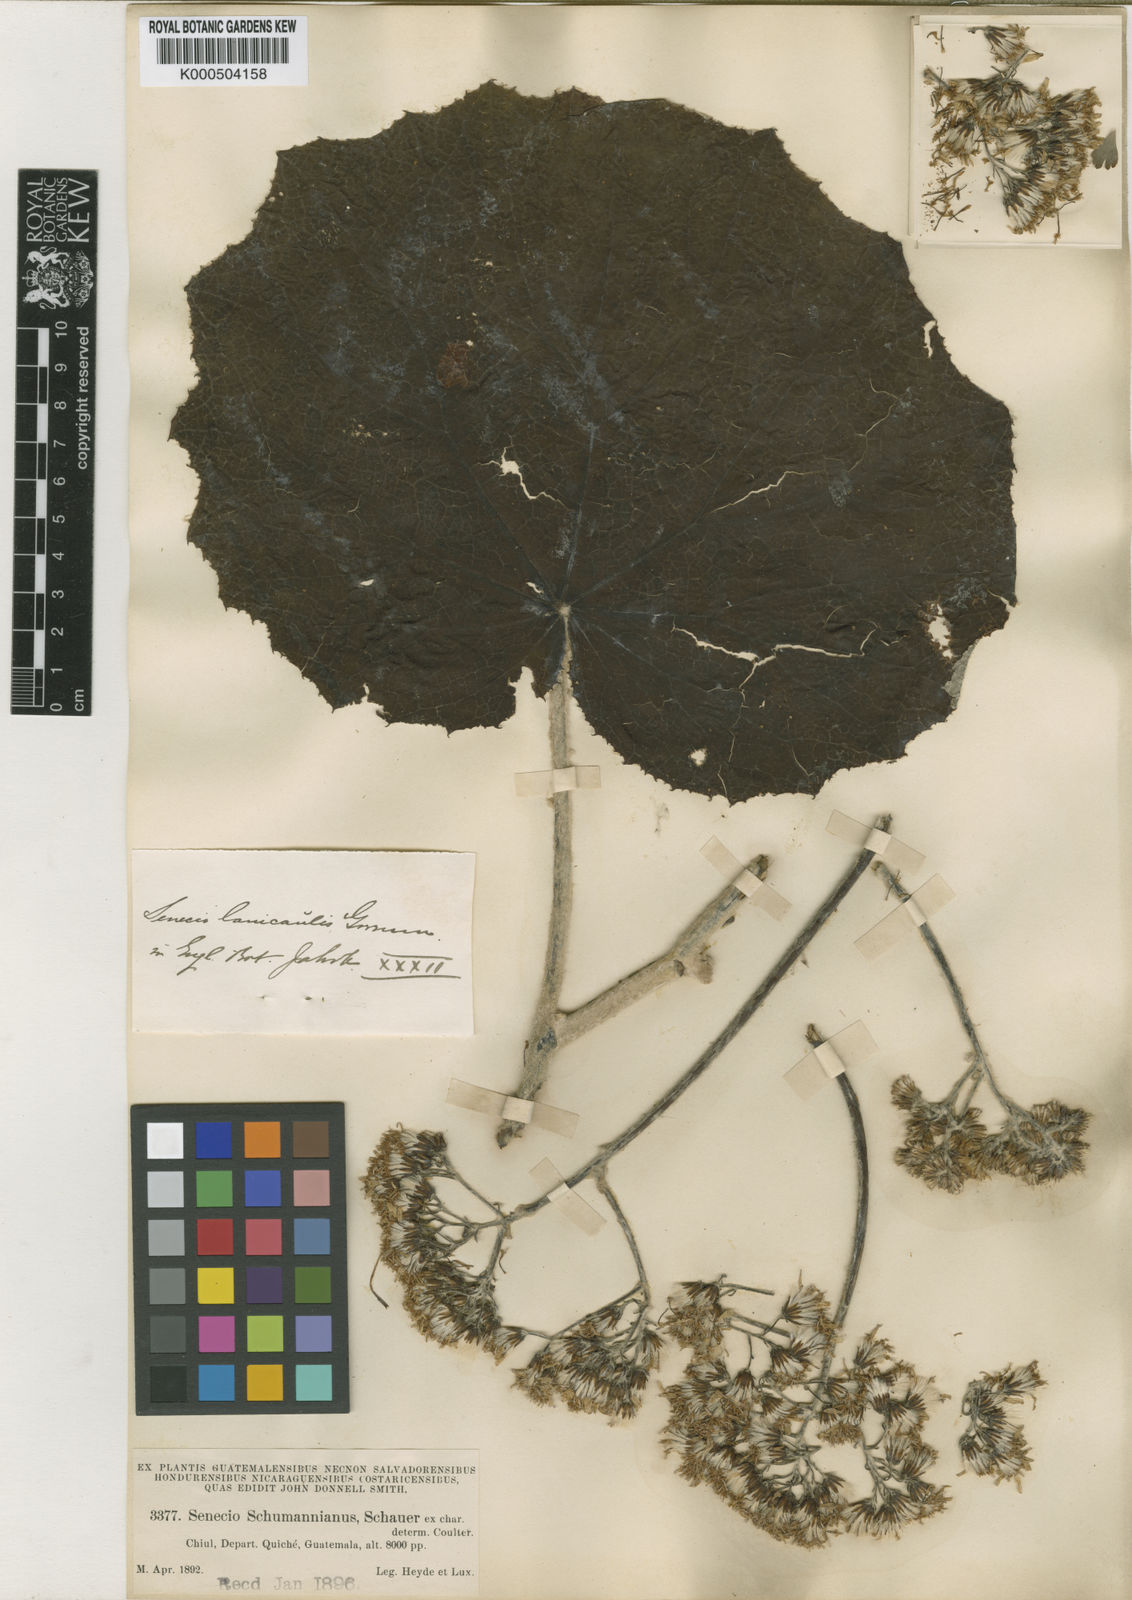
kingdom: Plantae
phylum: Tracheophyta
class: Magnoliopsida
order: Asterales
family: Asteraceae
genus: Roldana
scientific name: Roldana lanicaulis
